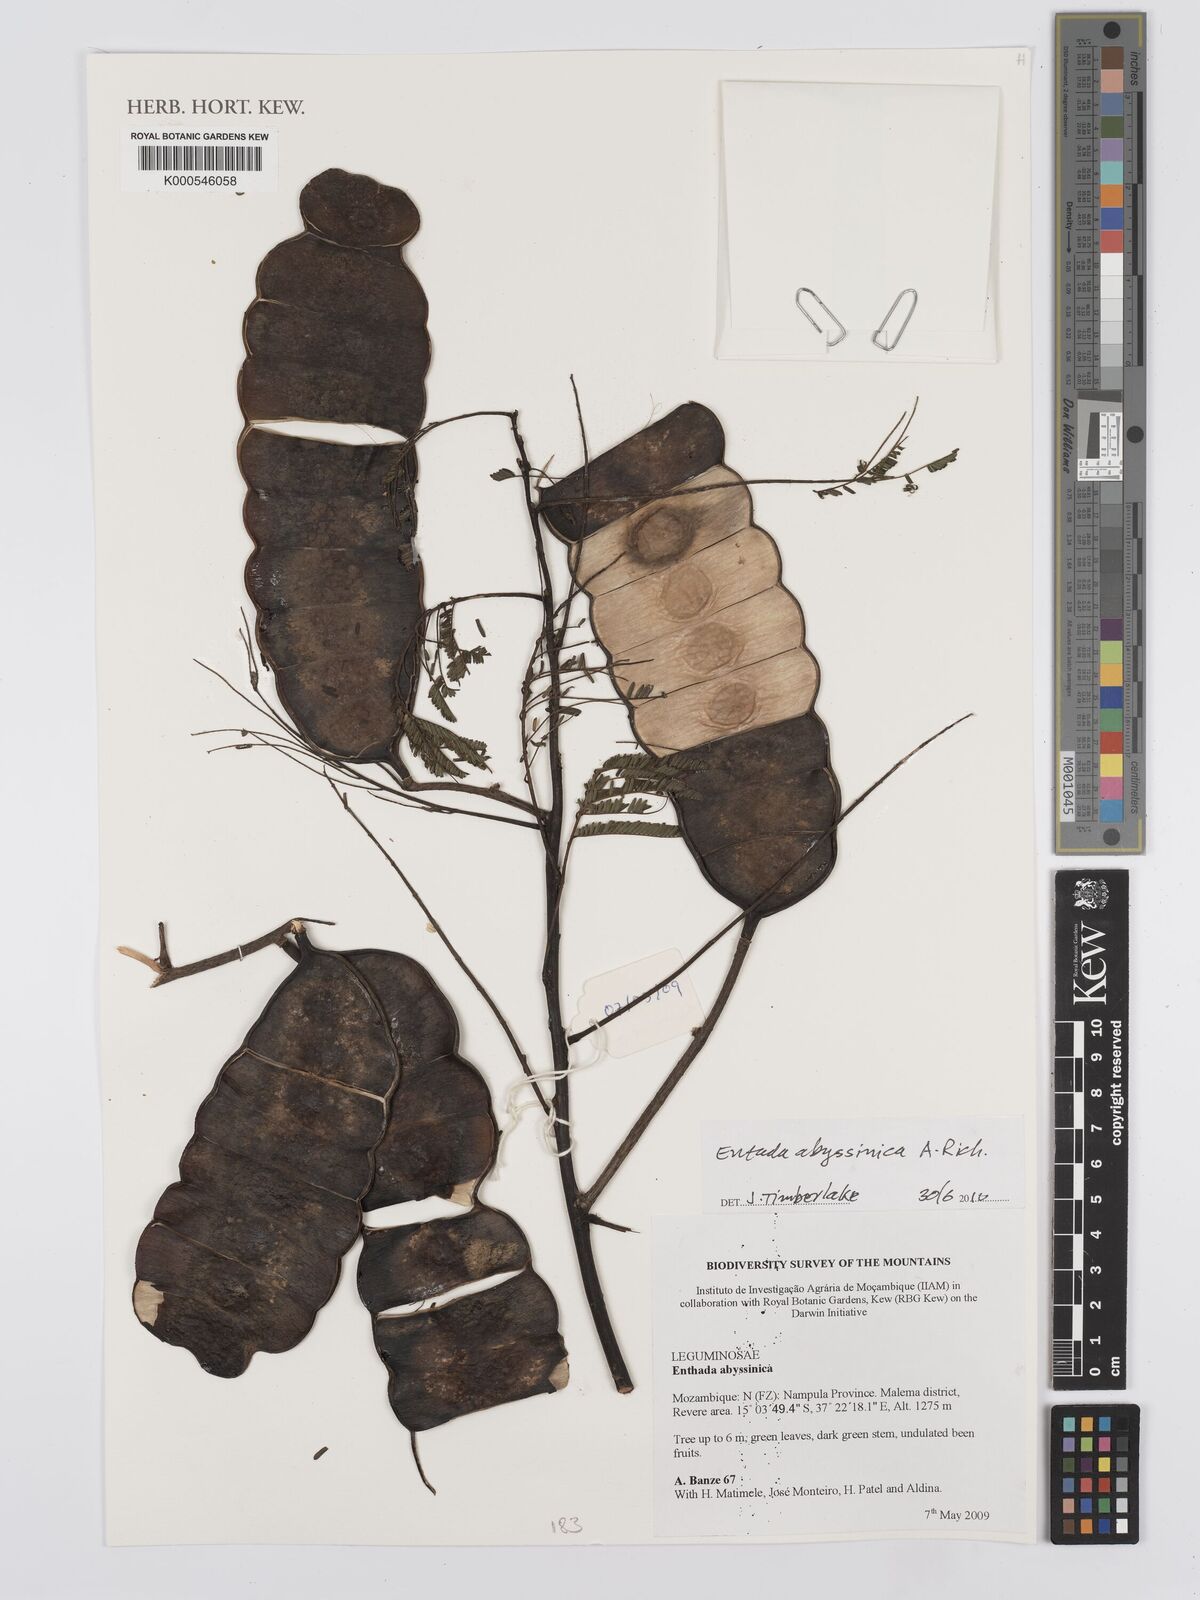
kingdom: Plantae
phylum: Tracheophyta
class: Magnoliopsida
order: Fabales
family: Fabaceae
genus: Entada
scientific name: Entada
